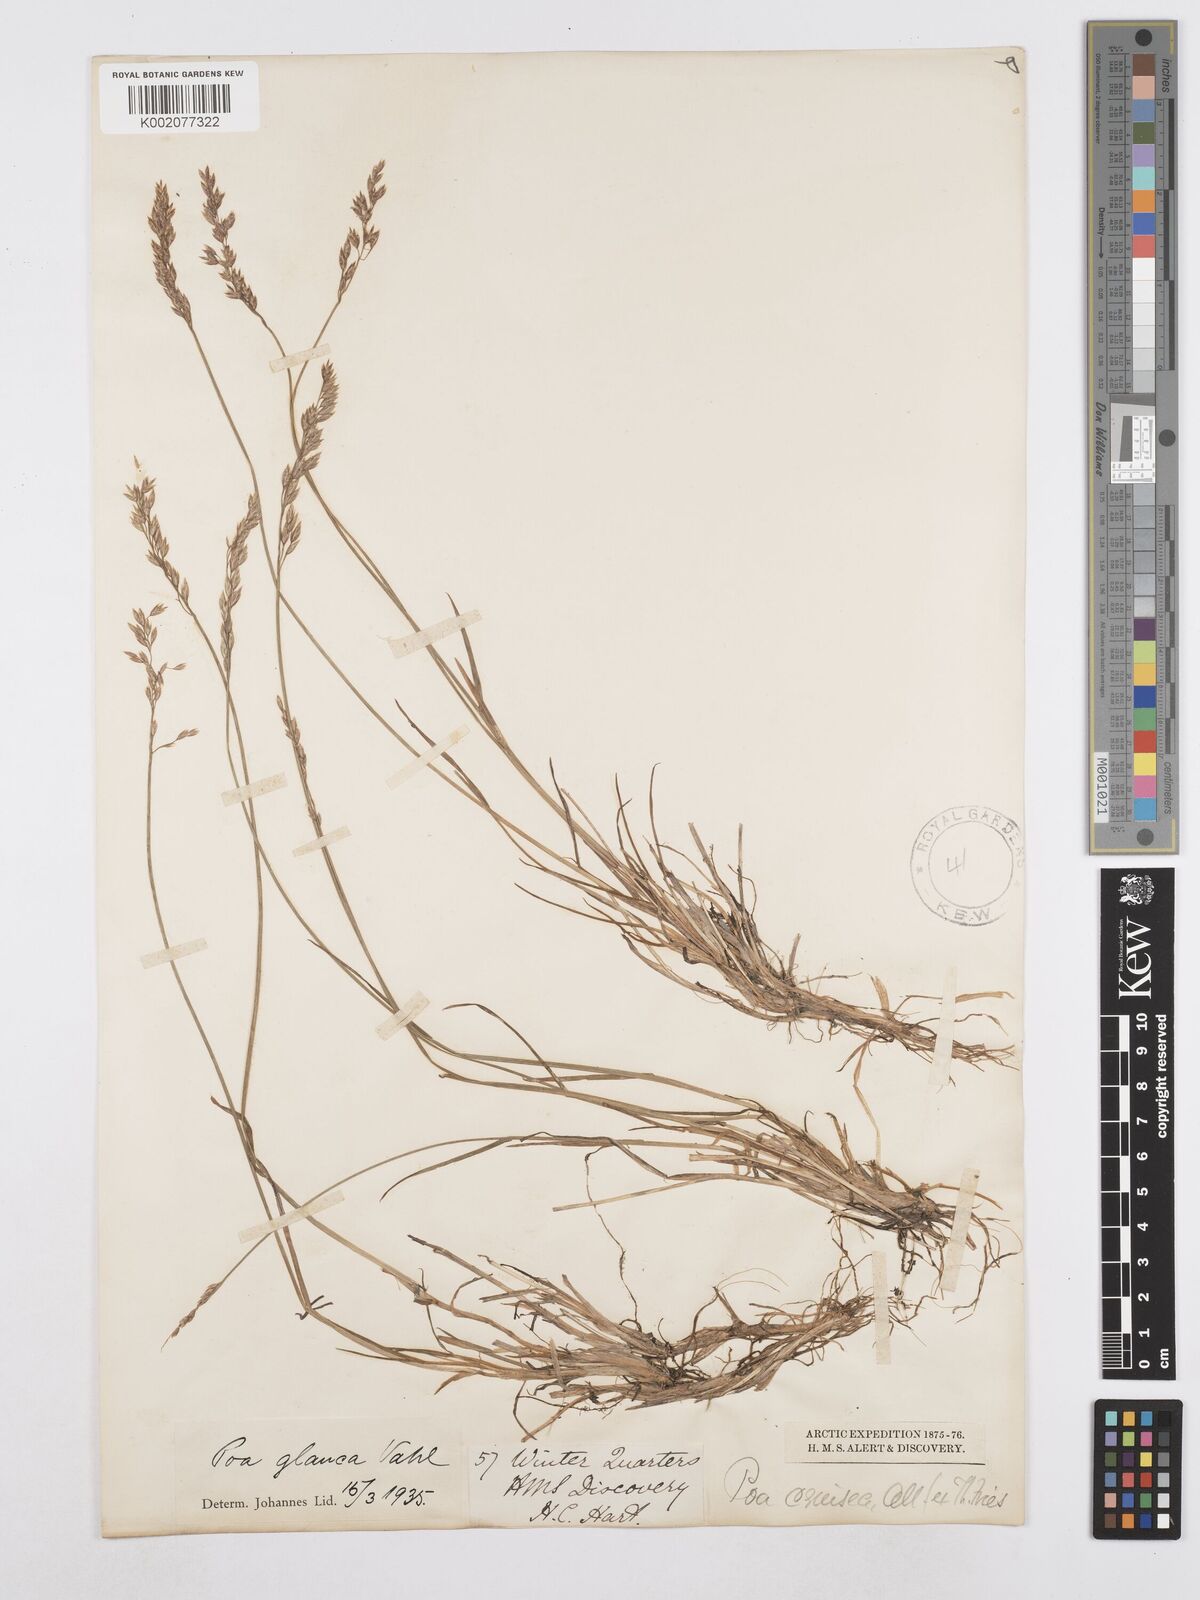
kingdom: Plantae
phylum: Tracheophyta
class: Liliopsida
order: Poales
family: Poaceae
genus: Poa
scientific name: Poa glauca
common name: Glaucous bluegrass
